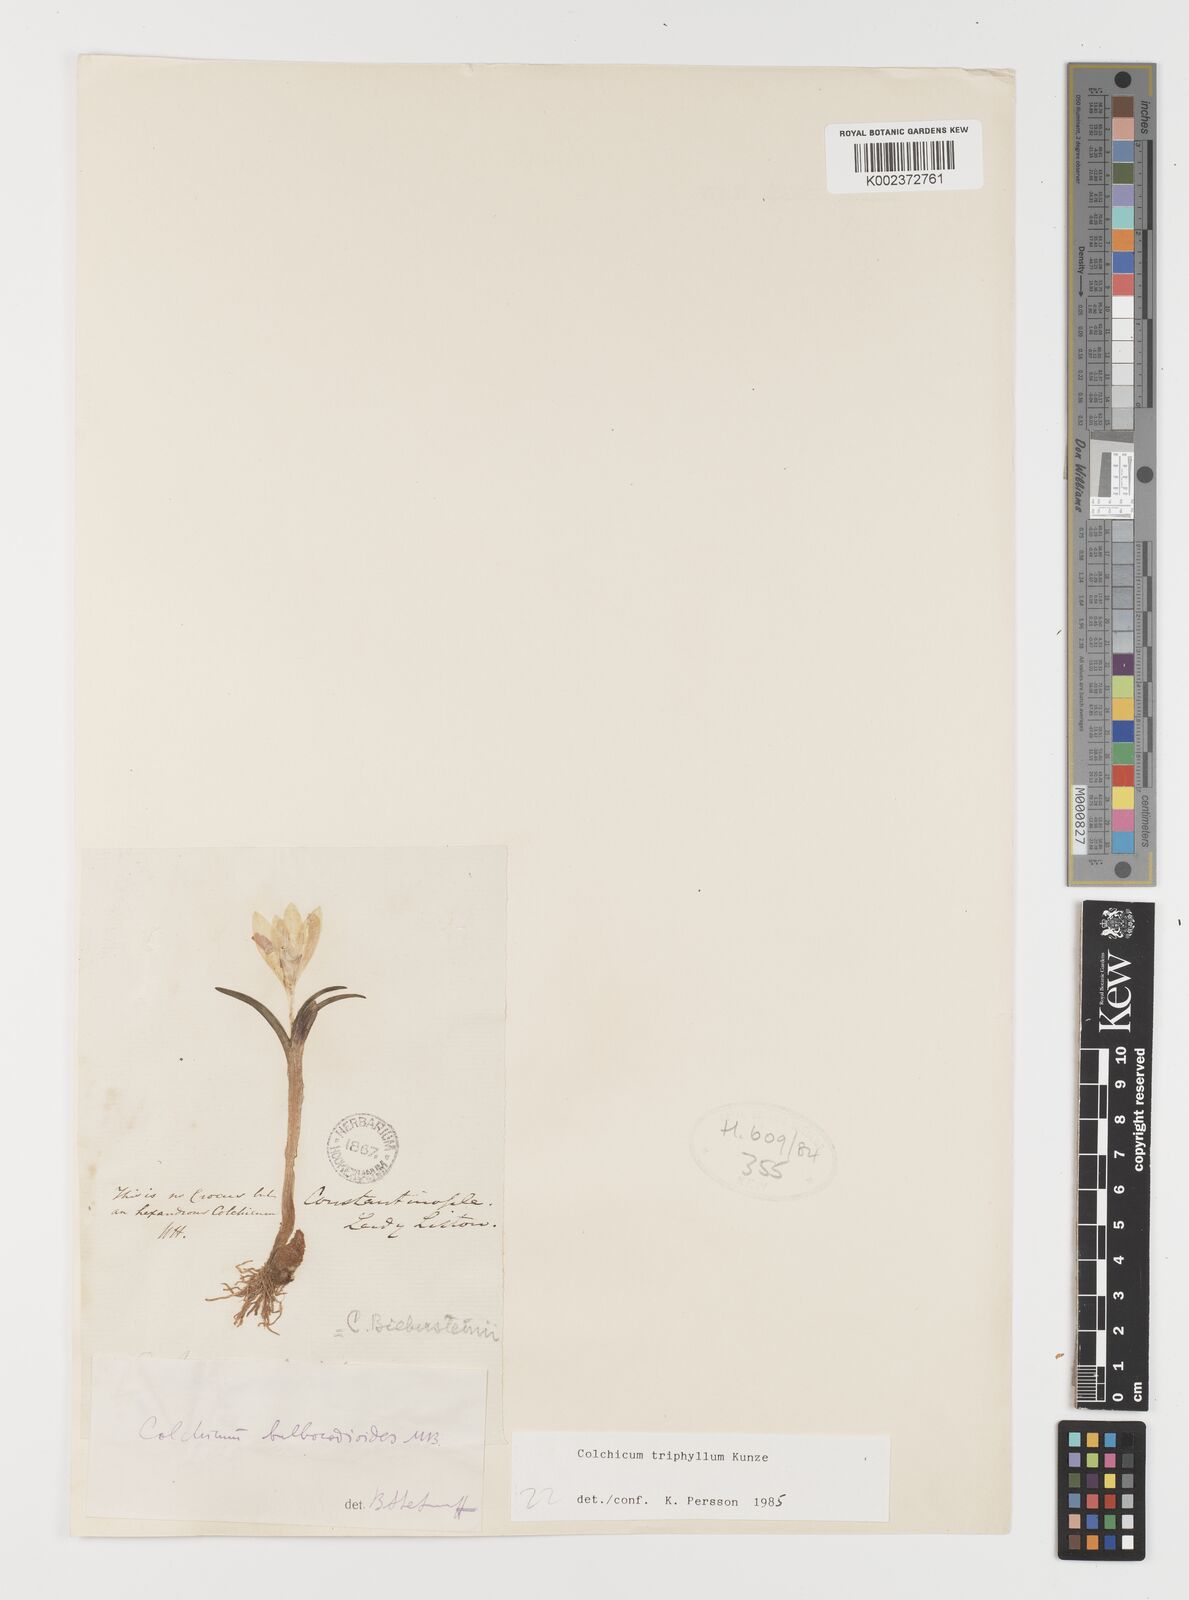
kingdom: Plantae
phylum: Tracheophyta
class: Liliopsida
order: Liliales
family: Colchicaceae
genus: Colchicum
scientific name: Colchicum triphyllum
